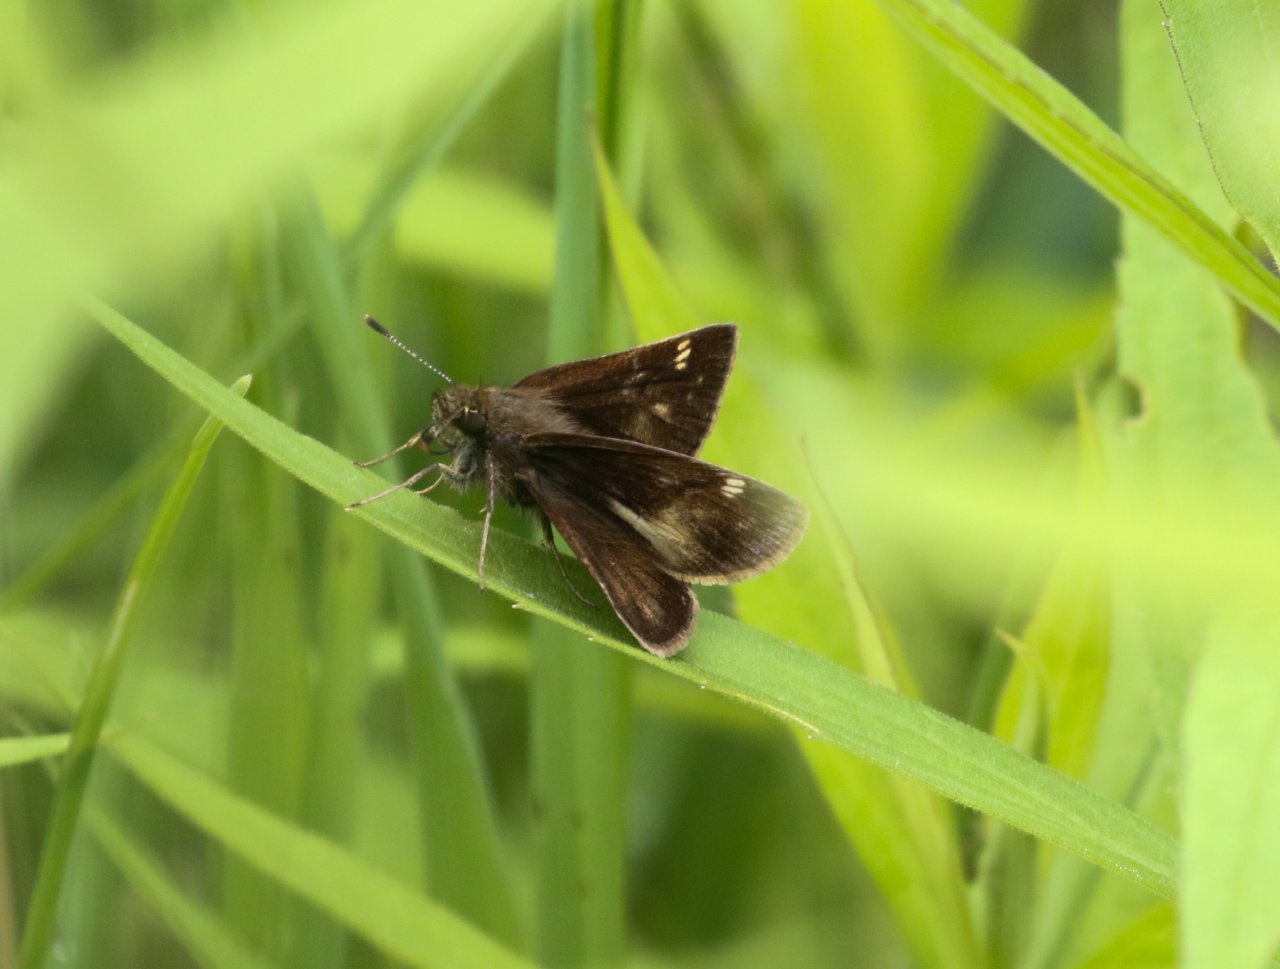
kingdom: Animalia
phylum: Arthropoda
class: Insecta
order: Lepidoptera
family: Hesperiidae
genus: Lon
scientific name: Lon hobomok
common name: Hobomok Skipper
